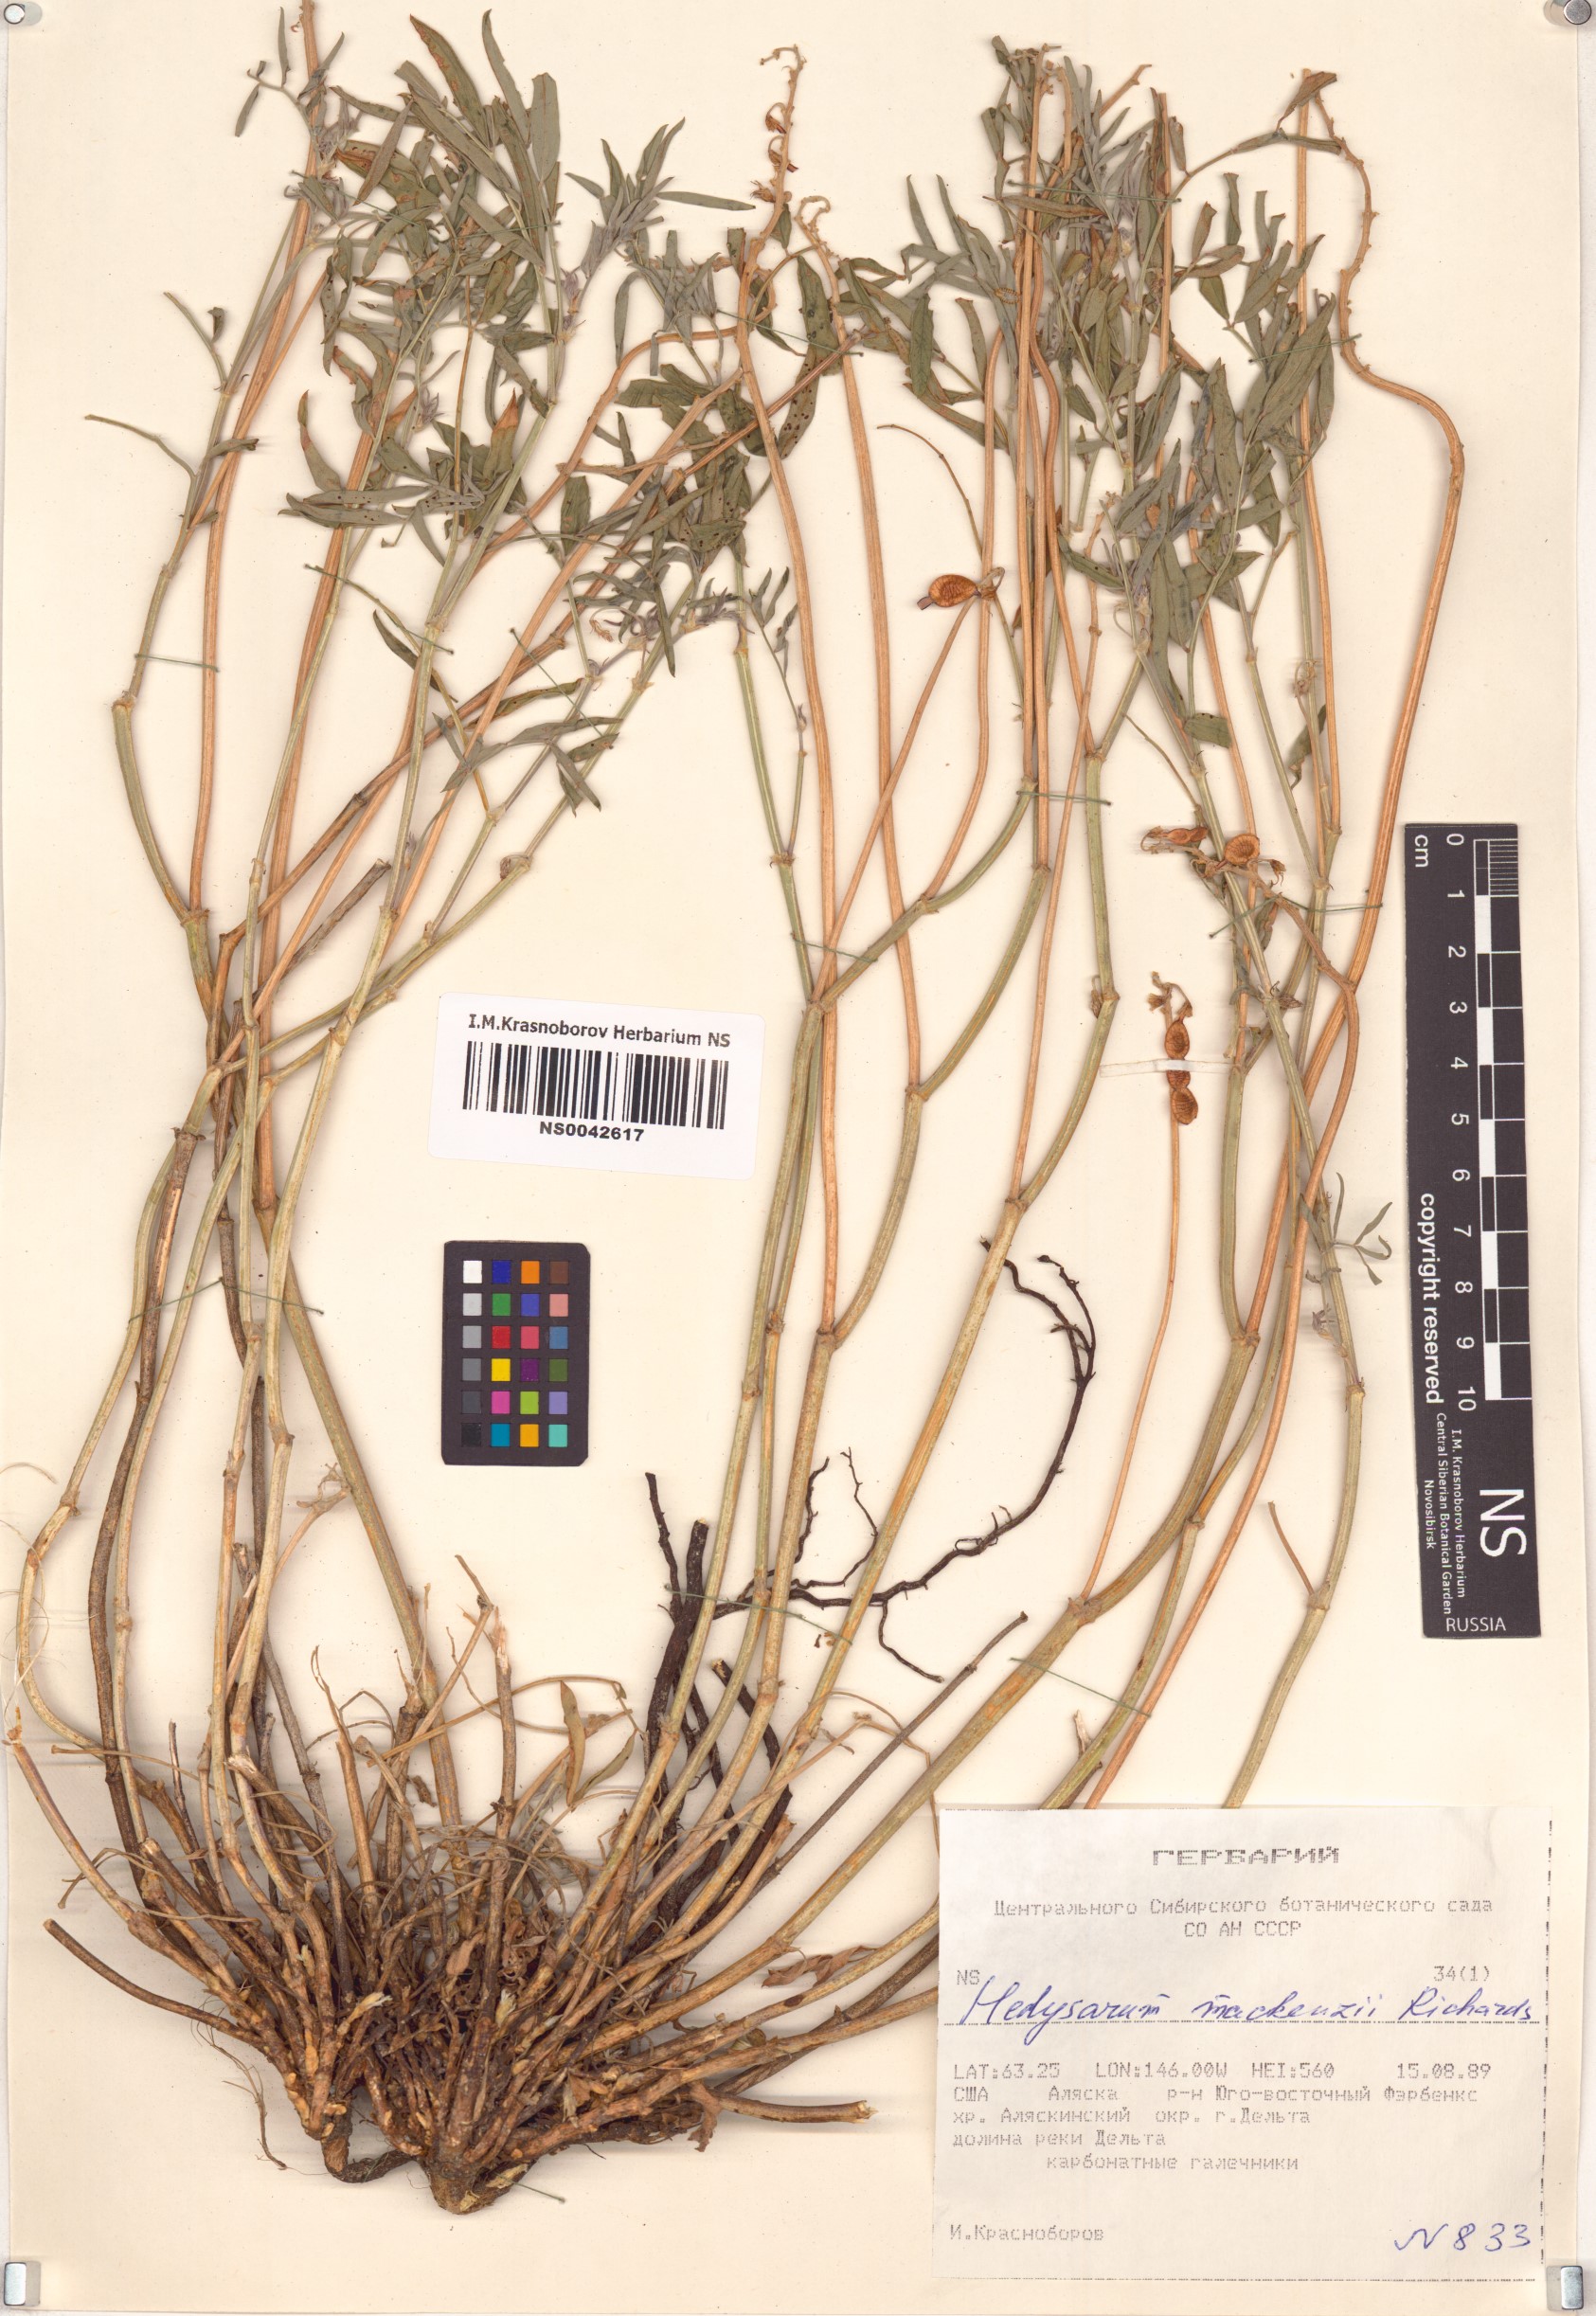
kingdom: Plantae
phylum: Tracheophyta
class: Magnoliopsida
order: Fabales
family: Fabaceae
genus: Hedysarum
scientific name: Hedysarum boreale
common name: Northern sweet-vetch
